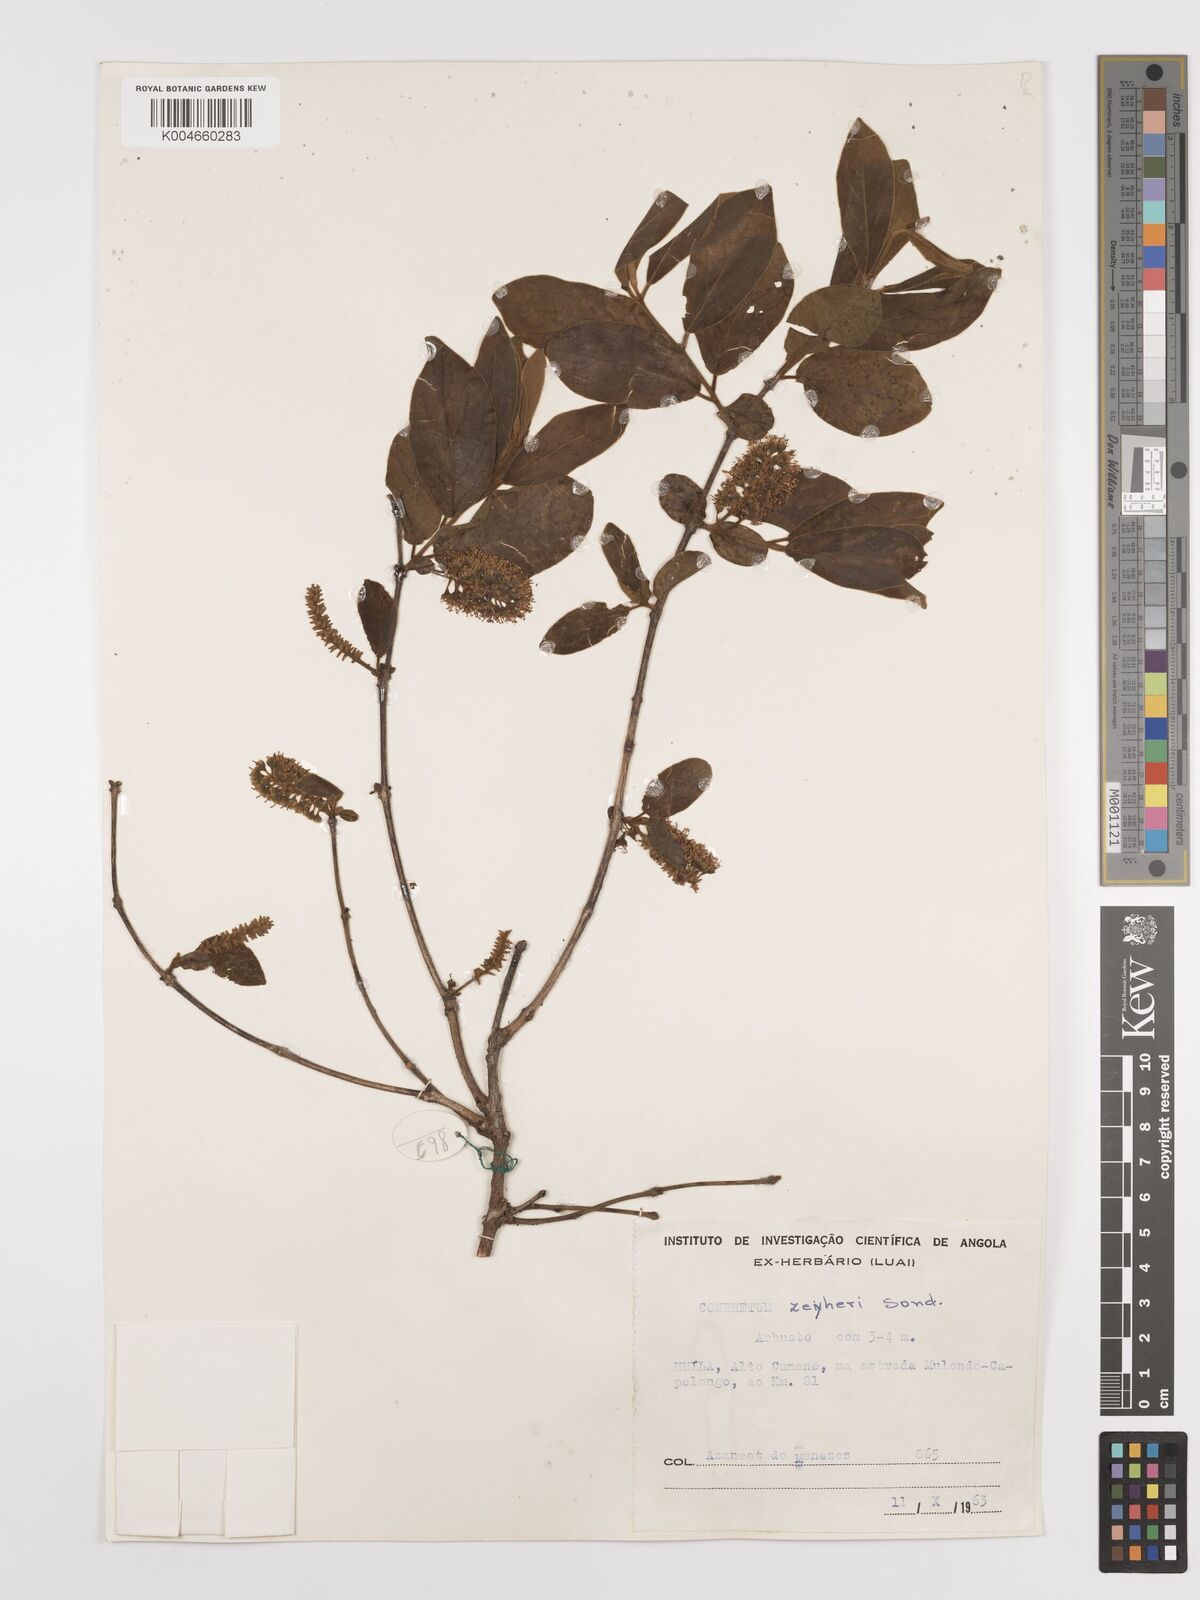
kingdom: Plantae
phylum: Tracheophyta
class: Magnoliopsida
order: Myrtales
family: Combretaceae
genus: Combretum
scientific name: Combretum zeyheri
